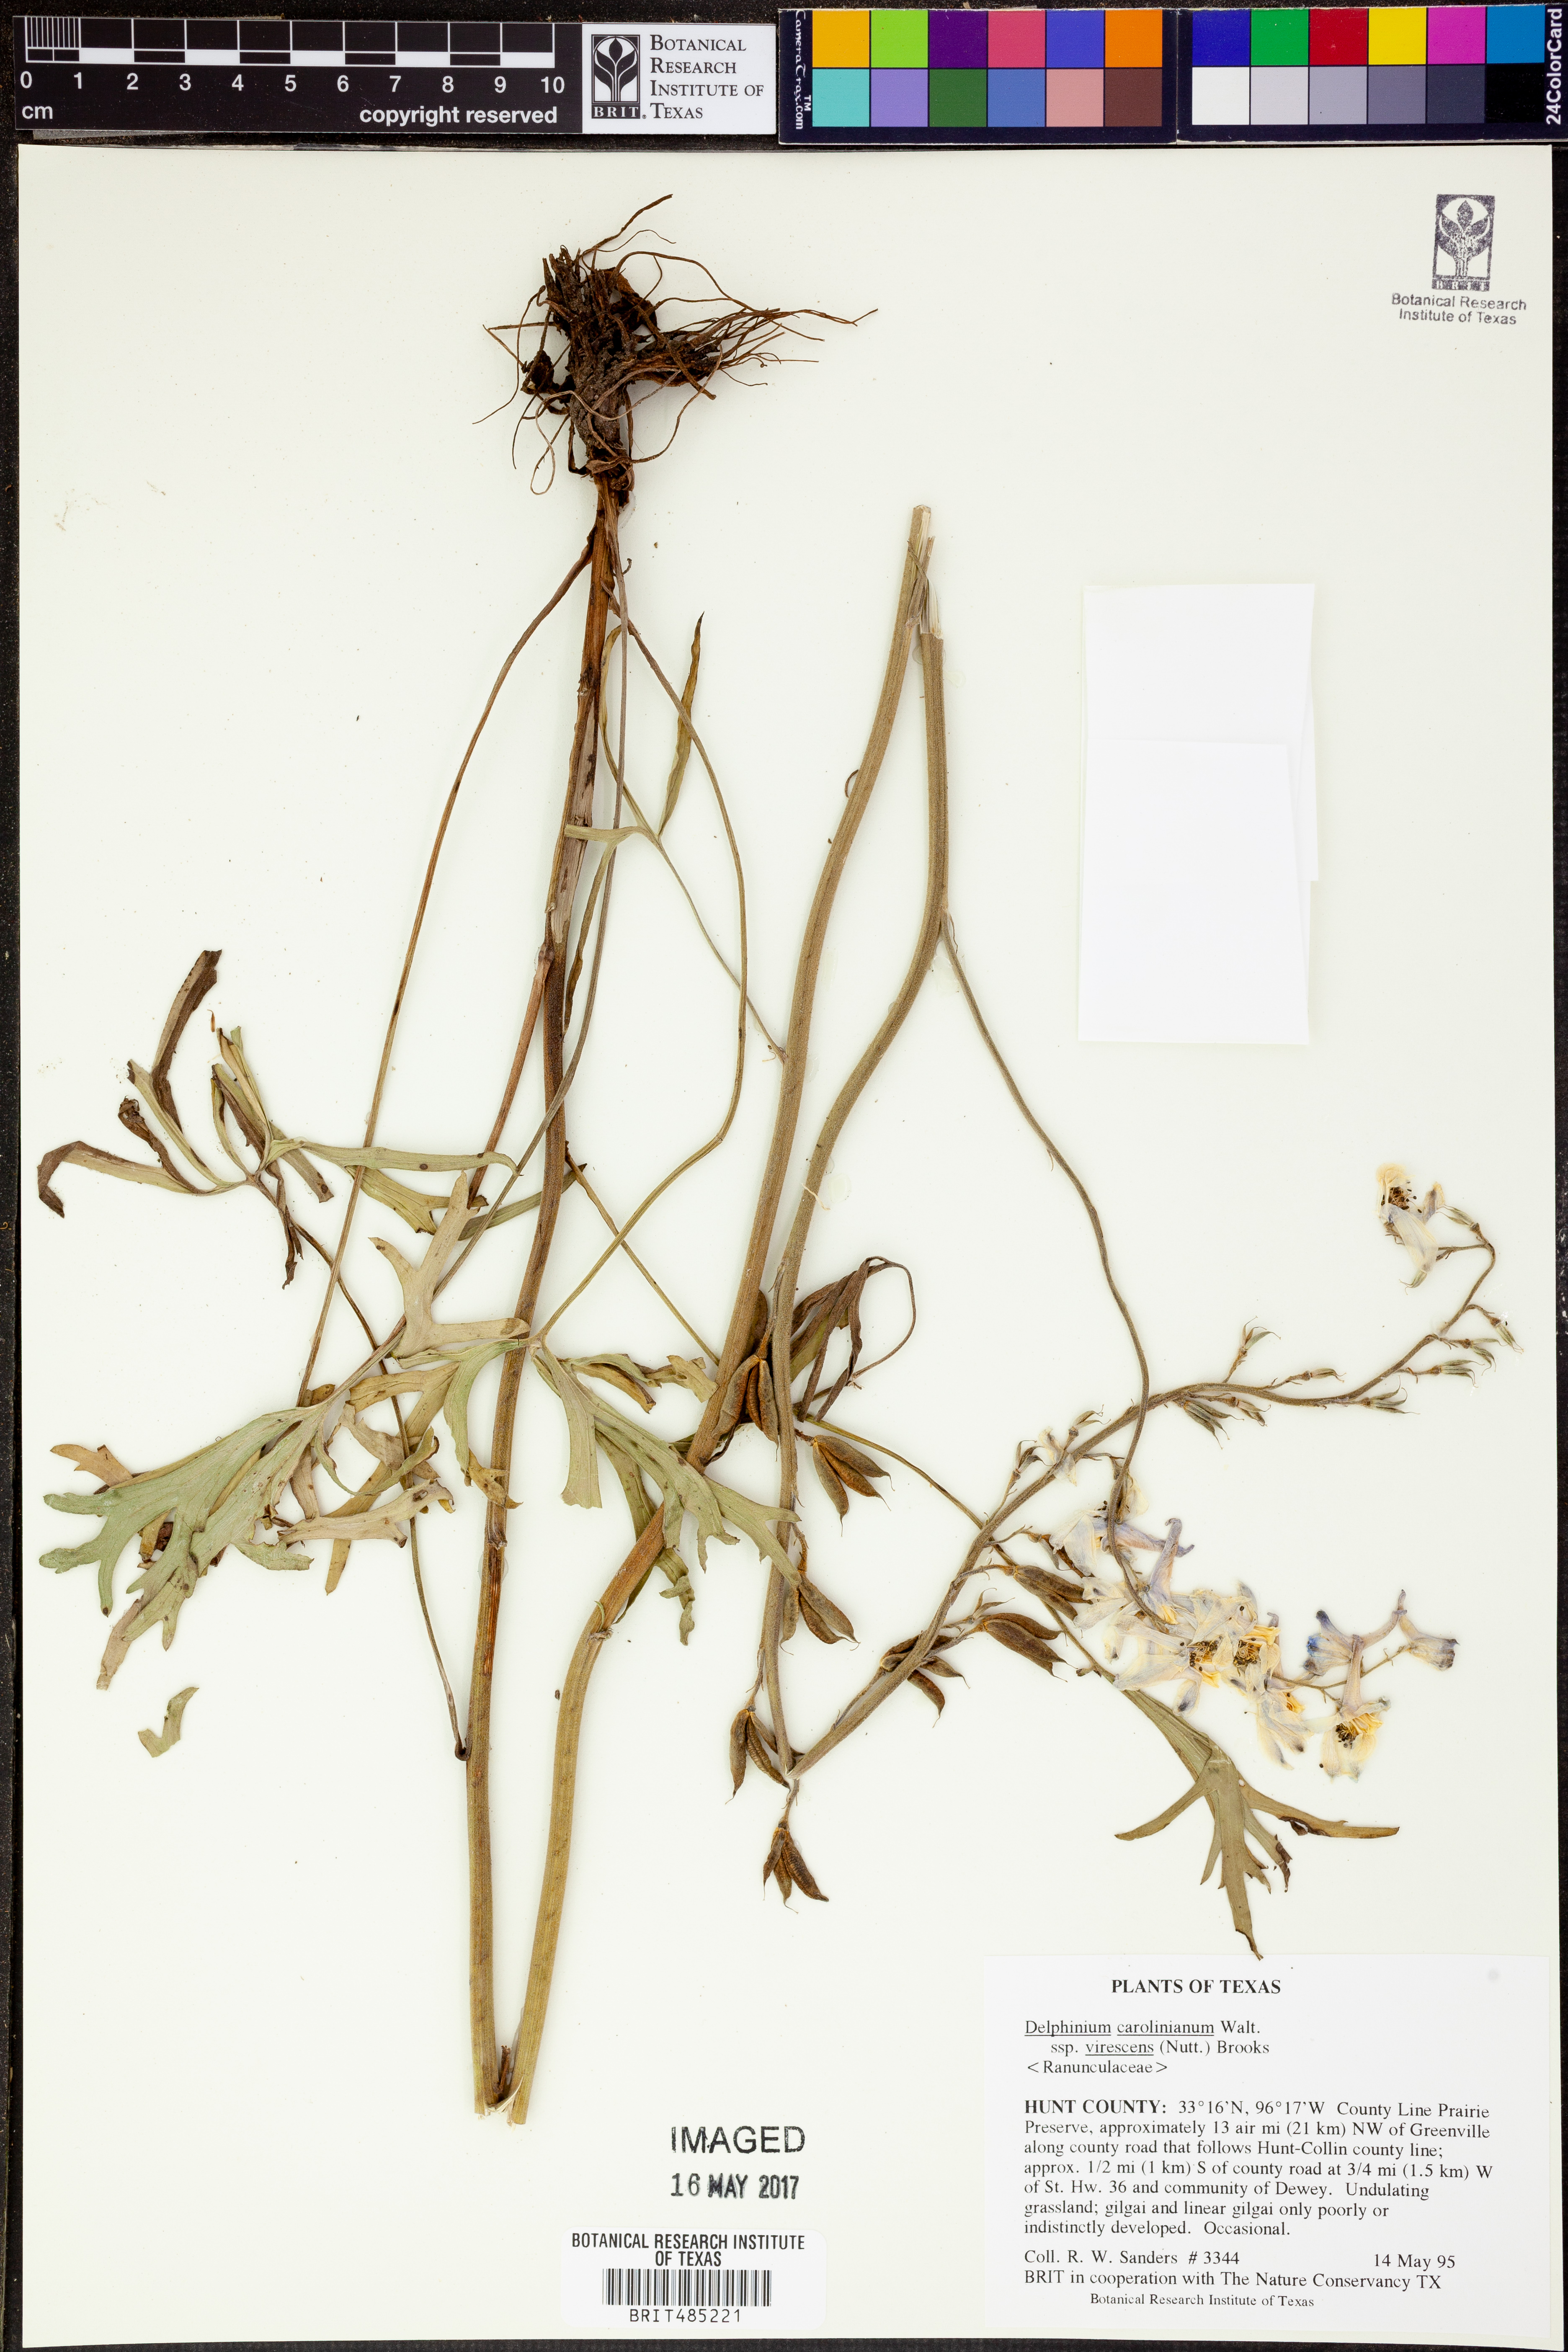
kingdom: Plantae
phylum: Tracheophyta
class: Magnoliopsida
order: Ranunculales
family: Ranunculaceae
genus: Delphinium
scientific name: Delphinium carolinianum
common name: Carolina larkspur
